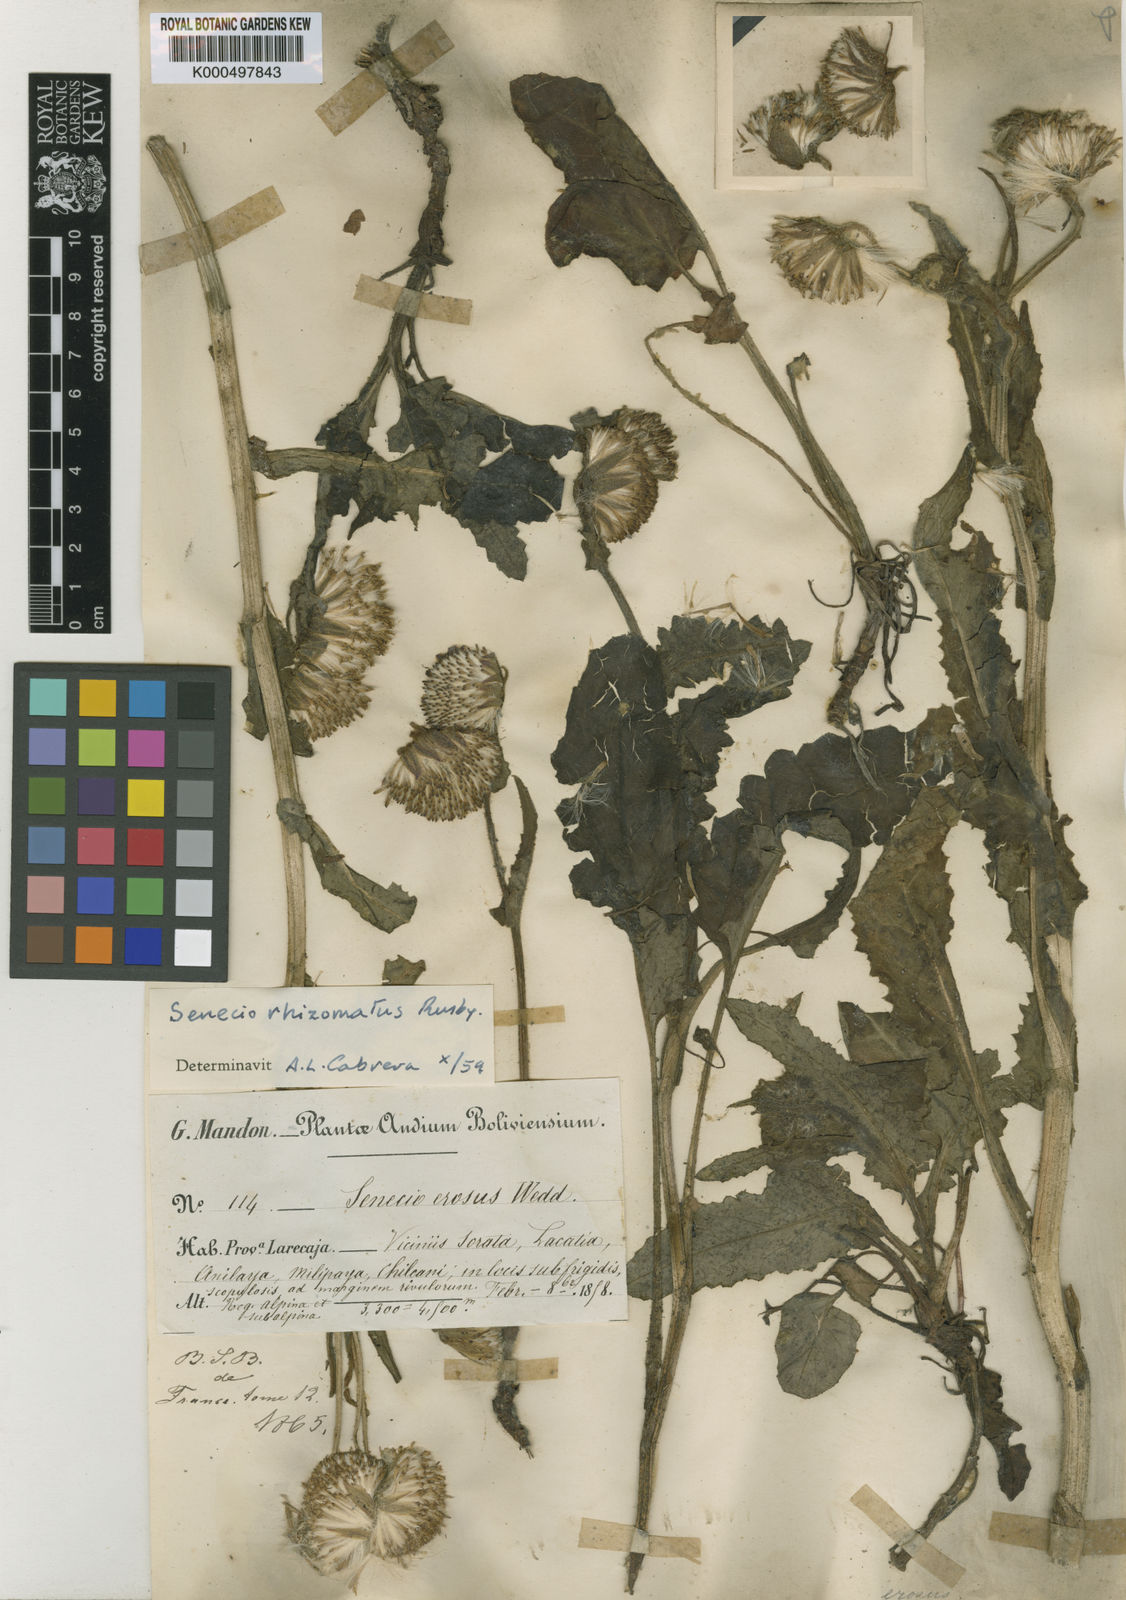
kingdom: Plantae
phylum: Tracheophyta
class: Magnoliopsida
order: Asterales
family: Asteraceae
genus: Senecio
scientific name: Senecio rhizomatus
